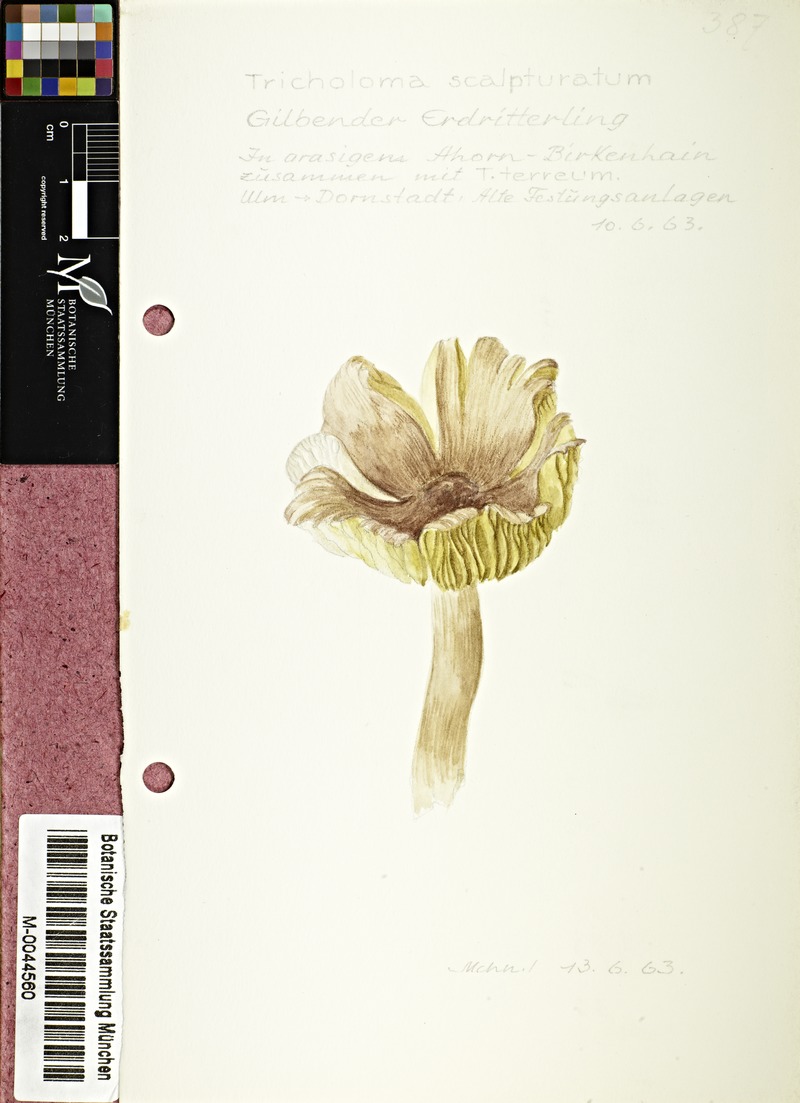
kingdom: Fungi
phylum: Basidiomycota
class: Agaricomycetes
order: Agaricales
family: Tricholomataceae
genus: Tricholoma
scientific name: Tricholoma scalpturatum
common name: Yellowing knight
